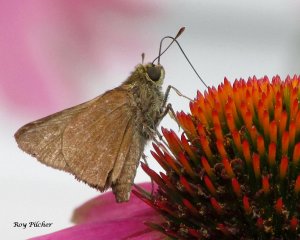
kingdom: Animalia
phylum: Arthropoda
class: Insecta
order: Lepidoptera
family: Hesperiidae
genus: Euphyes
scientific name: Euphyes vestris
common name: Dun Skipper
